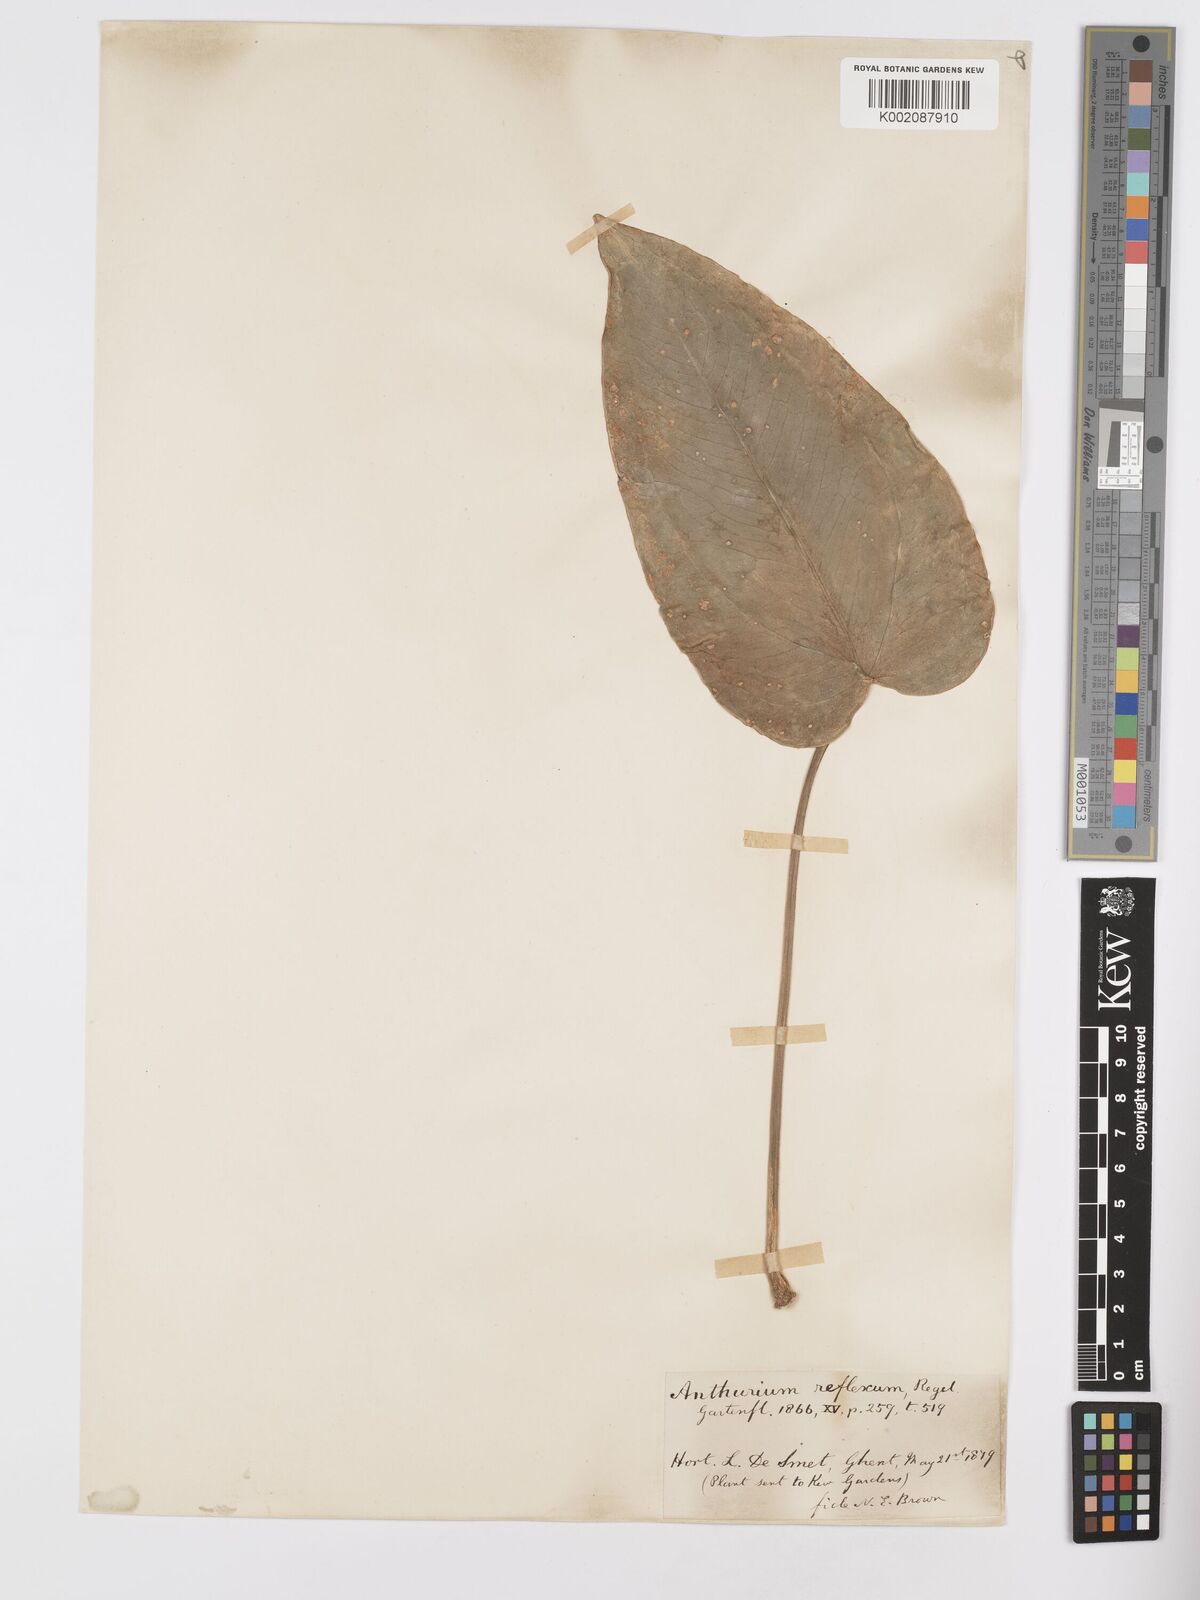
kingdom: Plantae
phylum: Tracheophyta
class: Liliopsida
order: Alismatales
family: Araceae
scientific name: Araceae
